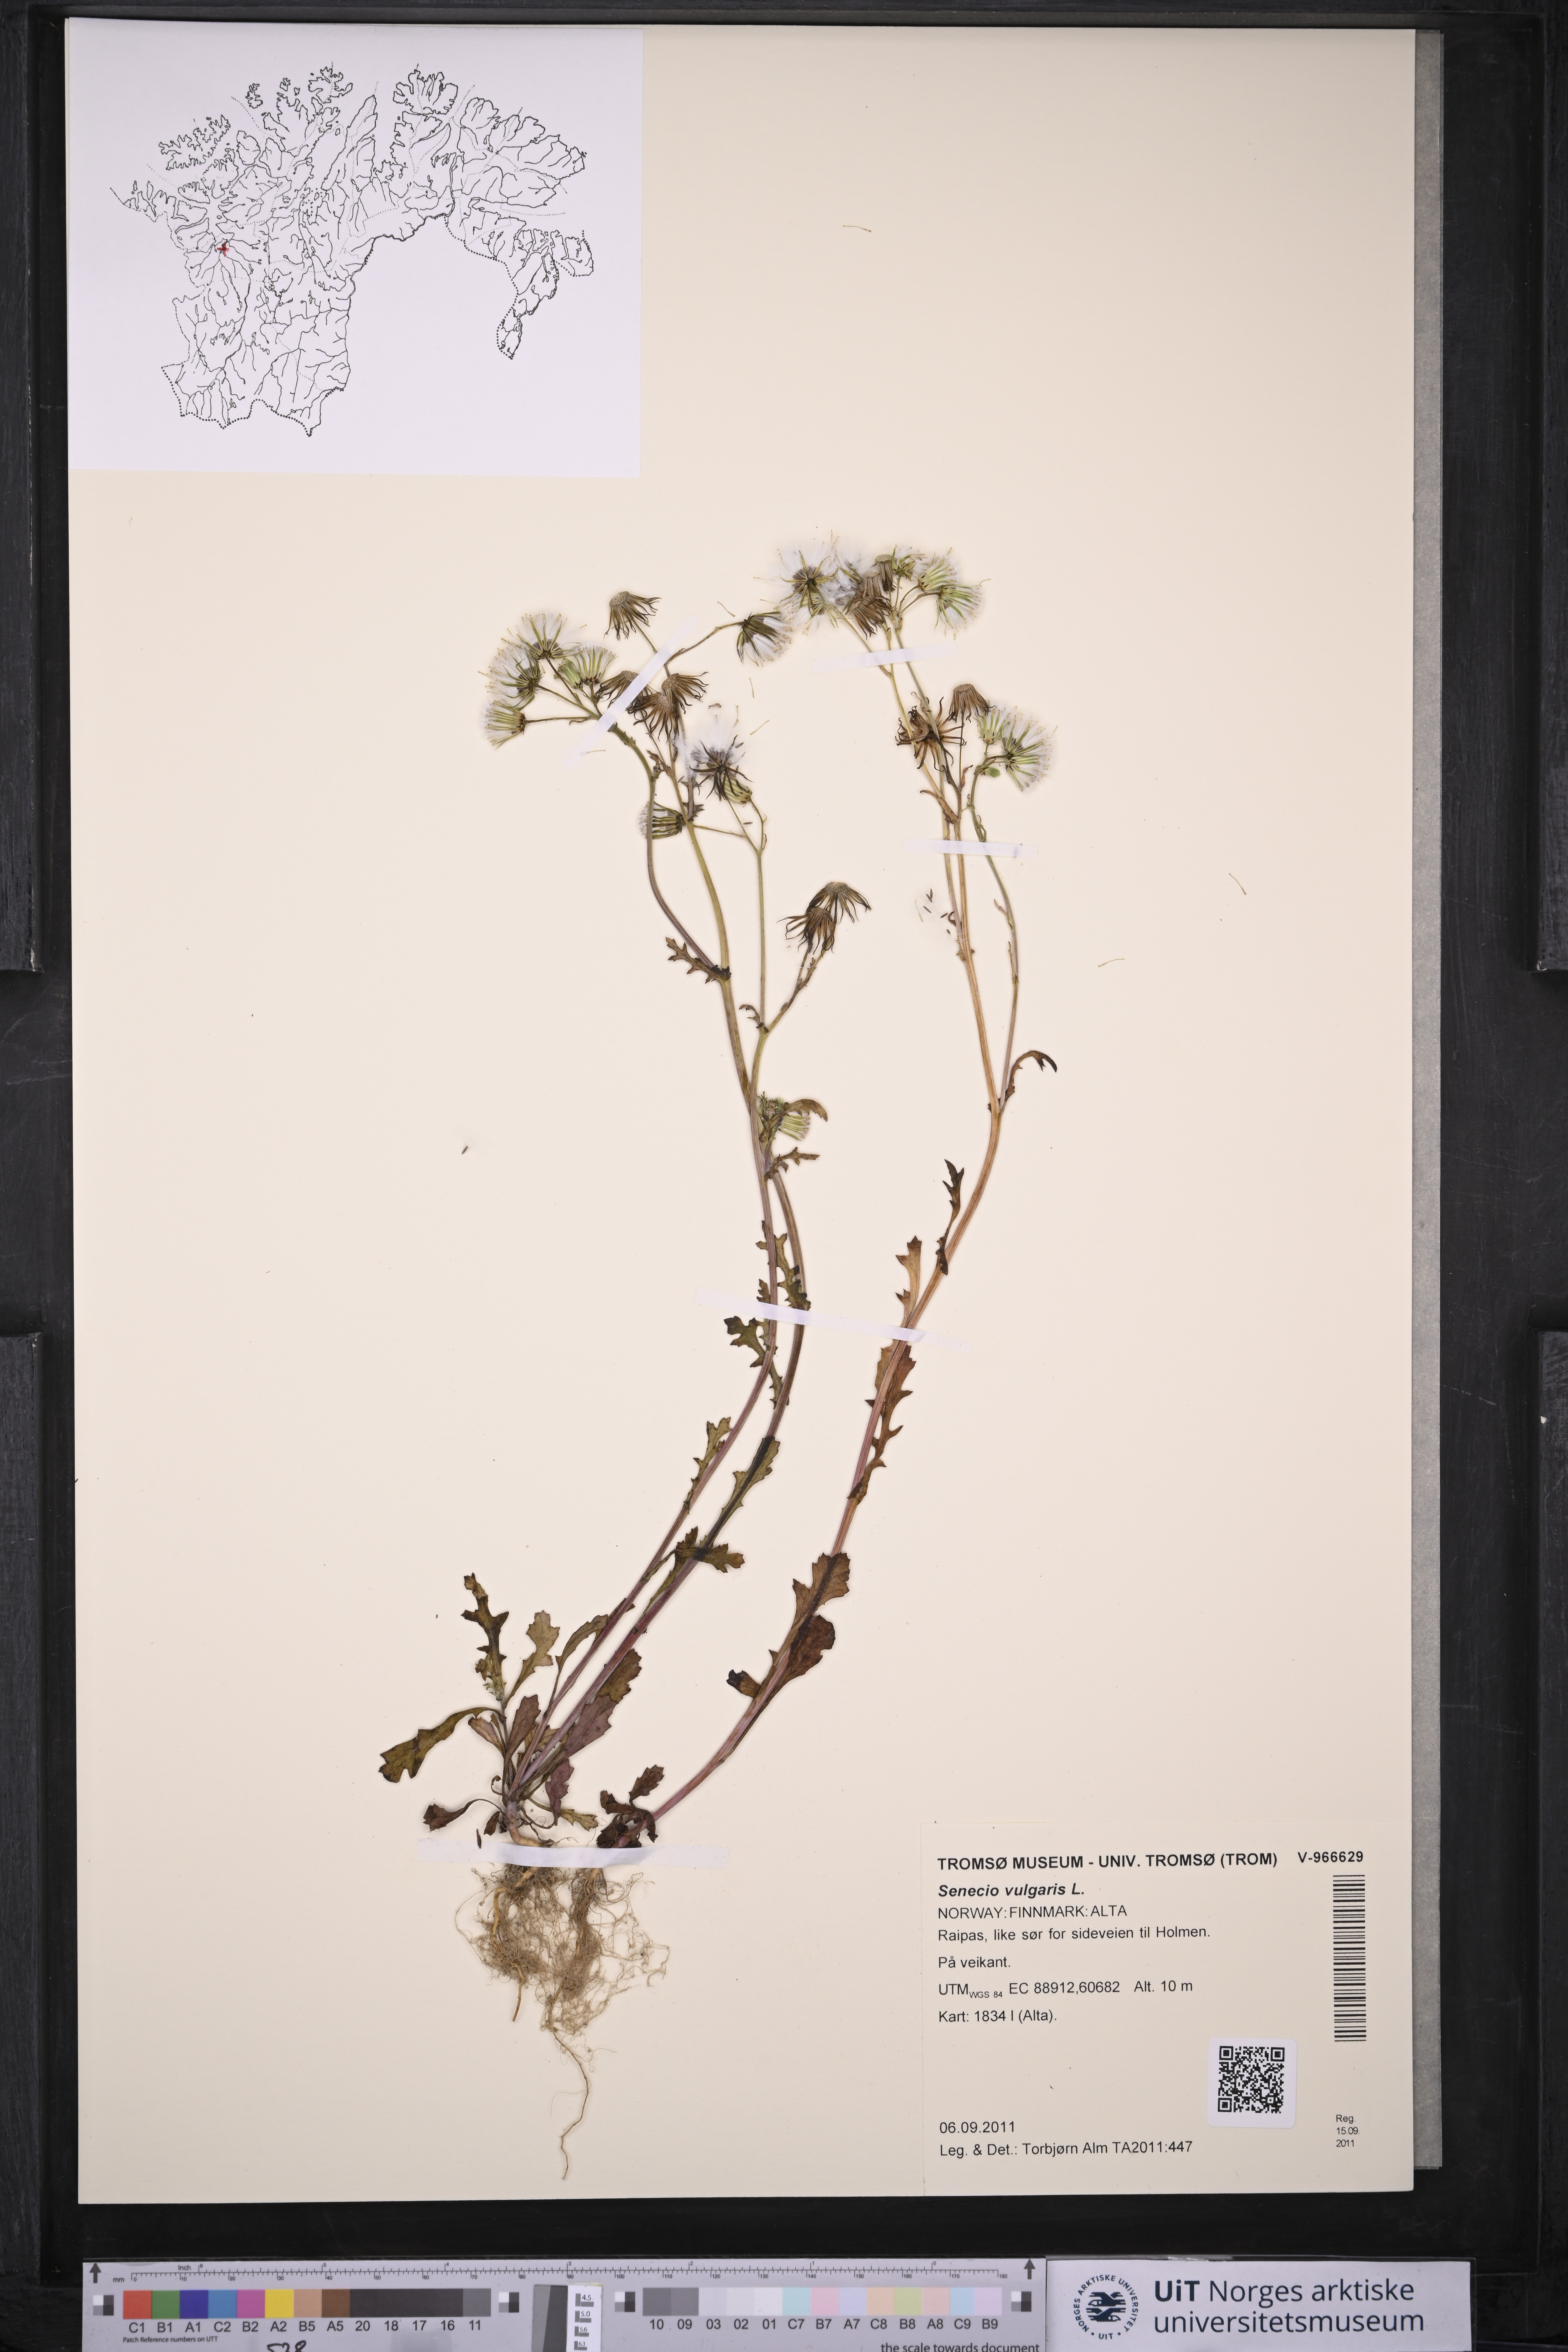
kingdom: Plantae
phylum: Tracheophyta
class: Magnoliopsida
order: Asterales
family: Asteraceae
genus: Senecio
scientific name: Senecio vulgaris
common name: Old-man-in-the-spring
